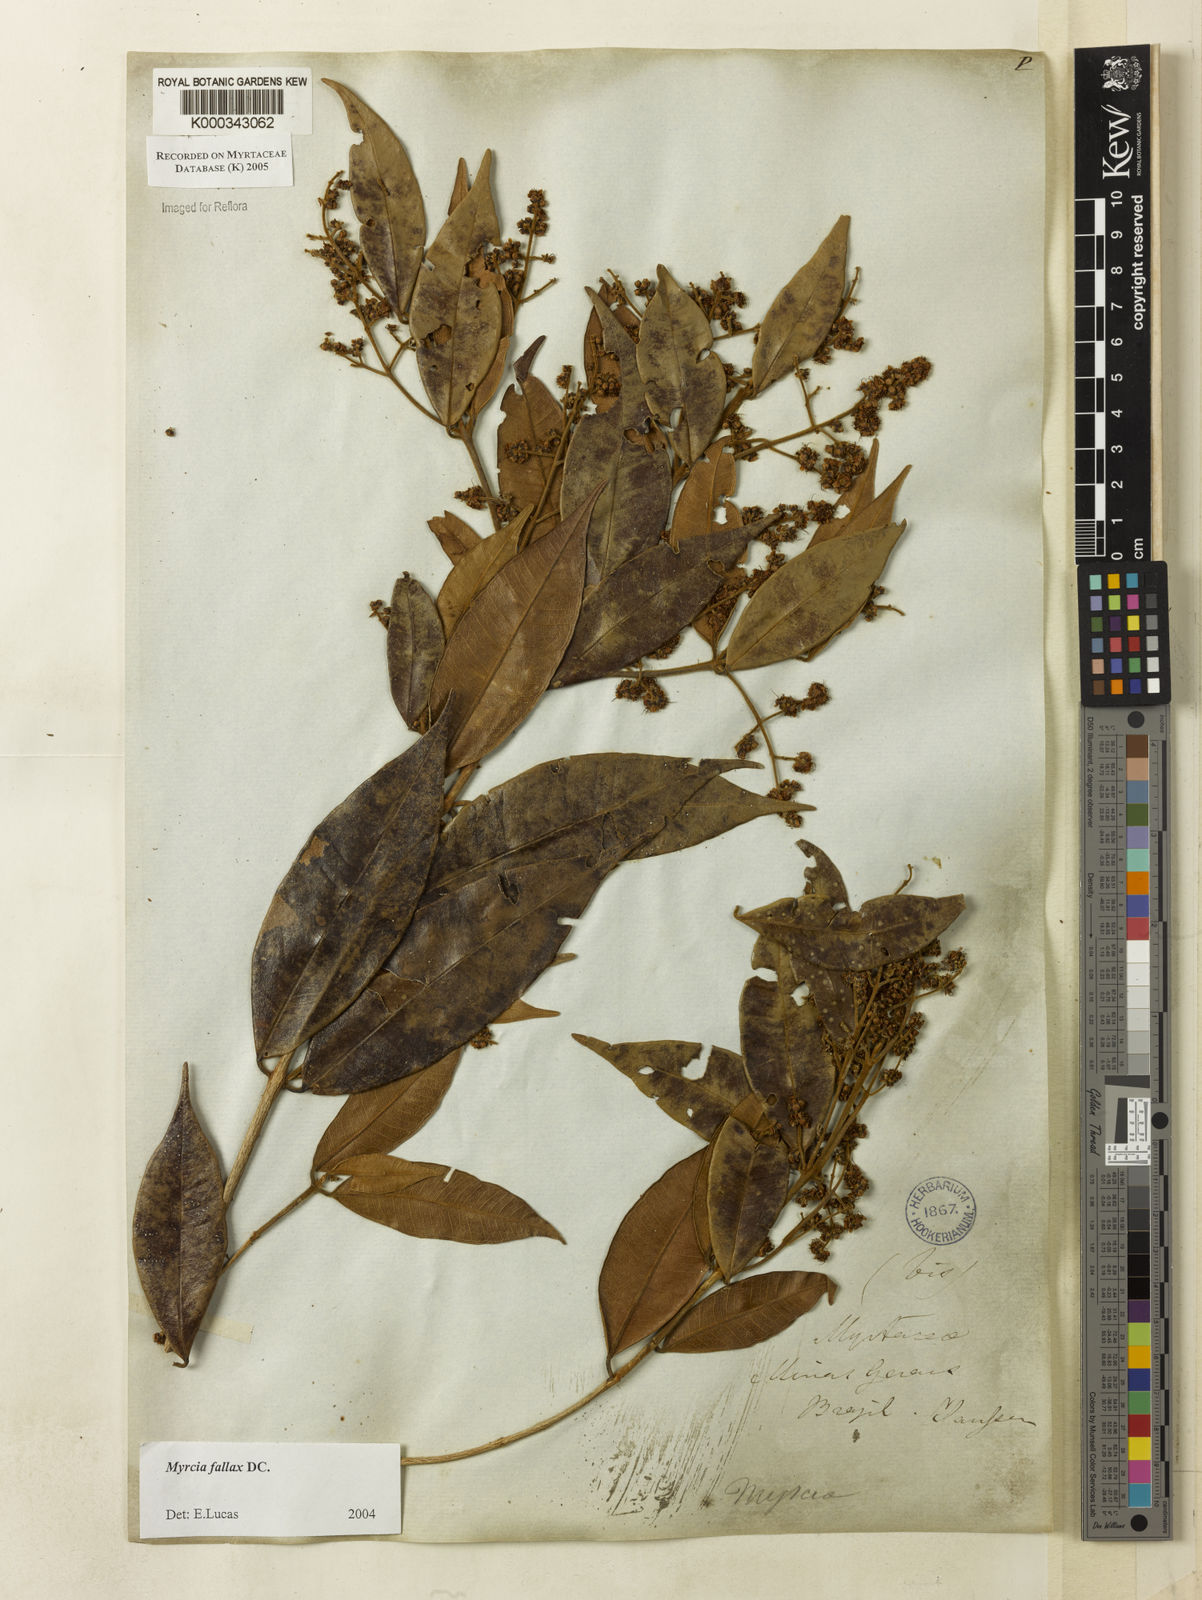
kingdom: Plantae
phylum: Tracheophyta
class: Magnoliopsida
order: Myrtales
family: Myrtaceae
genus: Myrcia
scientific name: Myrcia splendens
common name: Surinam cherry
